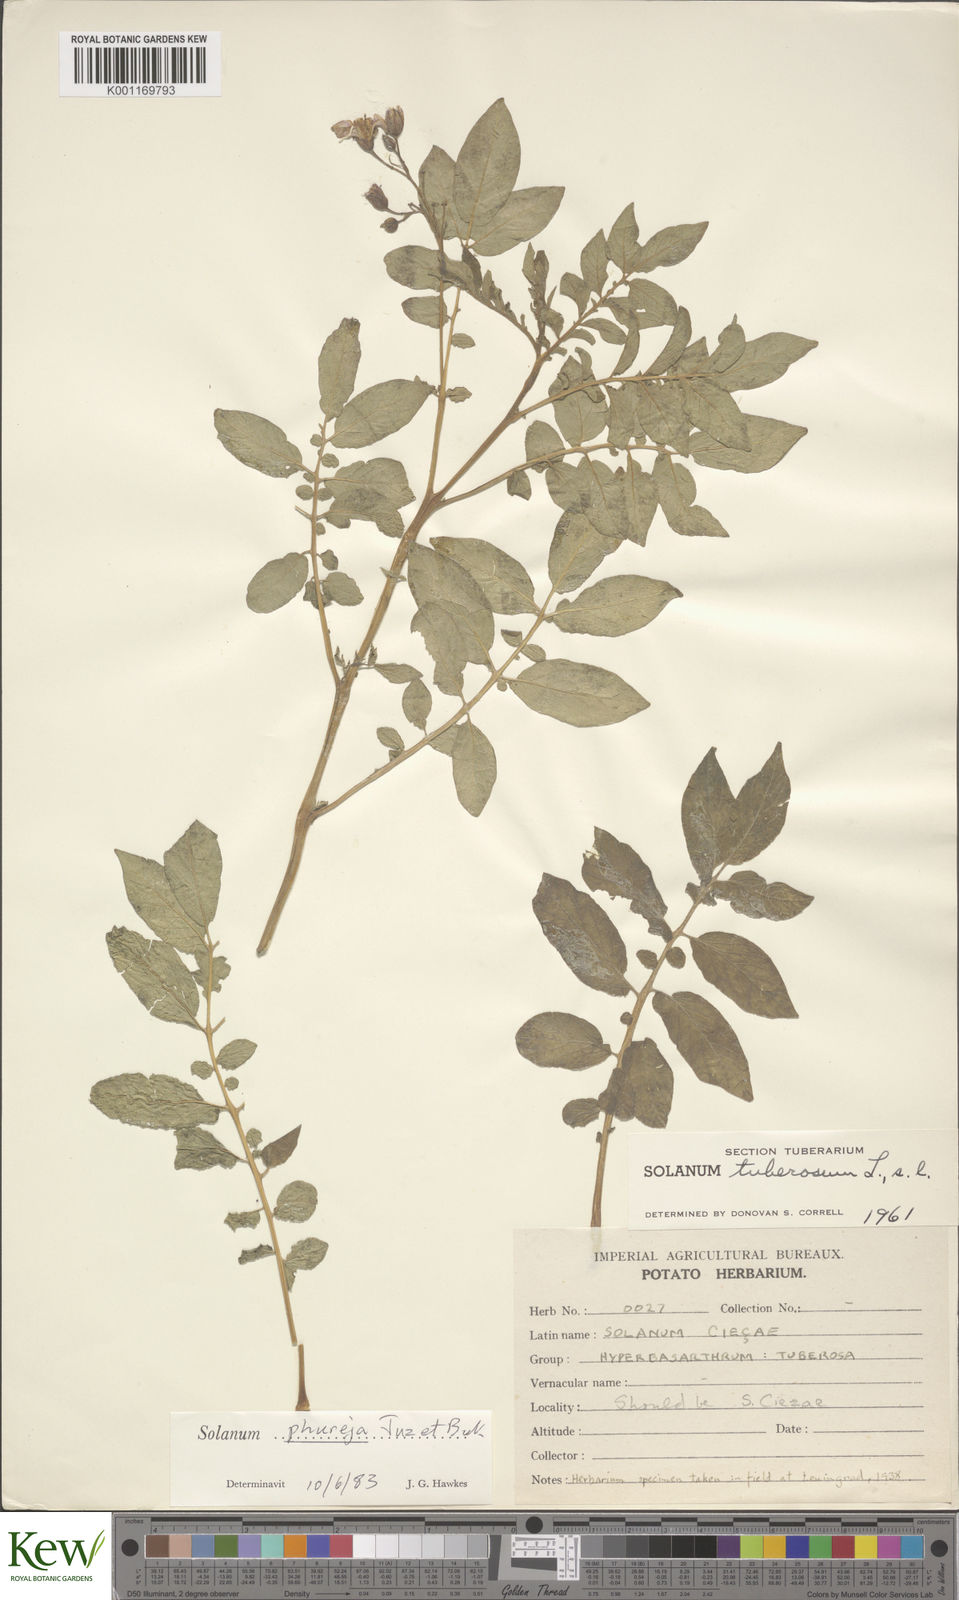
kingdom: Plantae
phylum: Tracheophyta
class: Magnoliopsida
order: Solanales
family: Solanaceae
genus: Solanum
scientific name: Solanum tuberosum
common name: Potato
